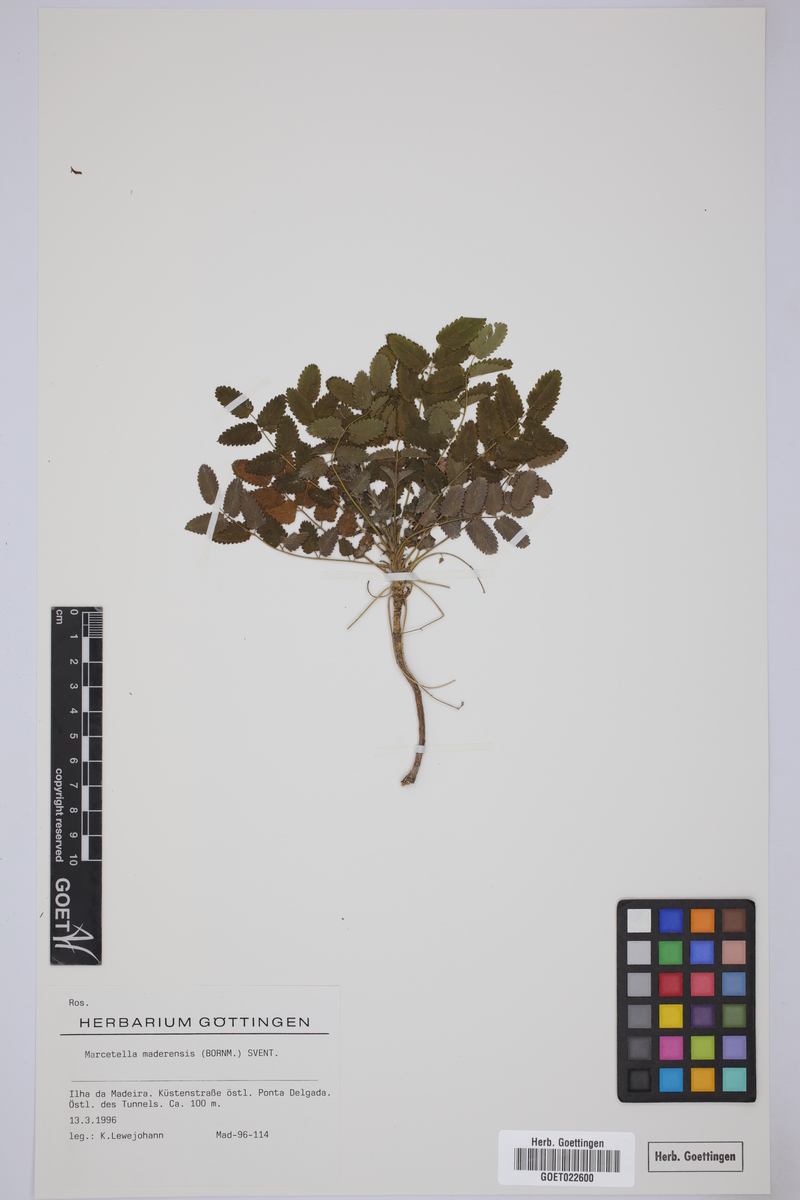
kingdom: Plantae
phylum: Tracheophyta
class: Magnoliopsida
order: Rosales
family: Rosaceae
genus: Marcetella
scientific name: Marcetella maderensis
